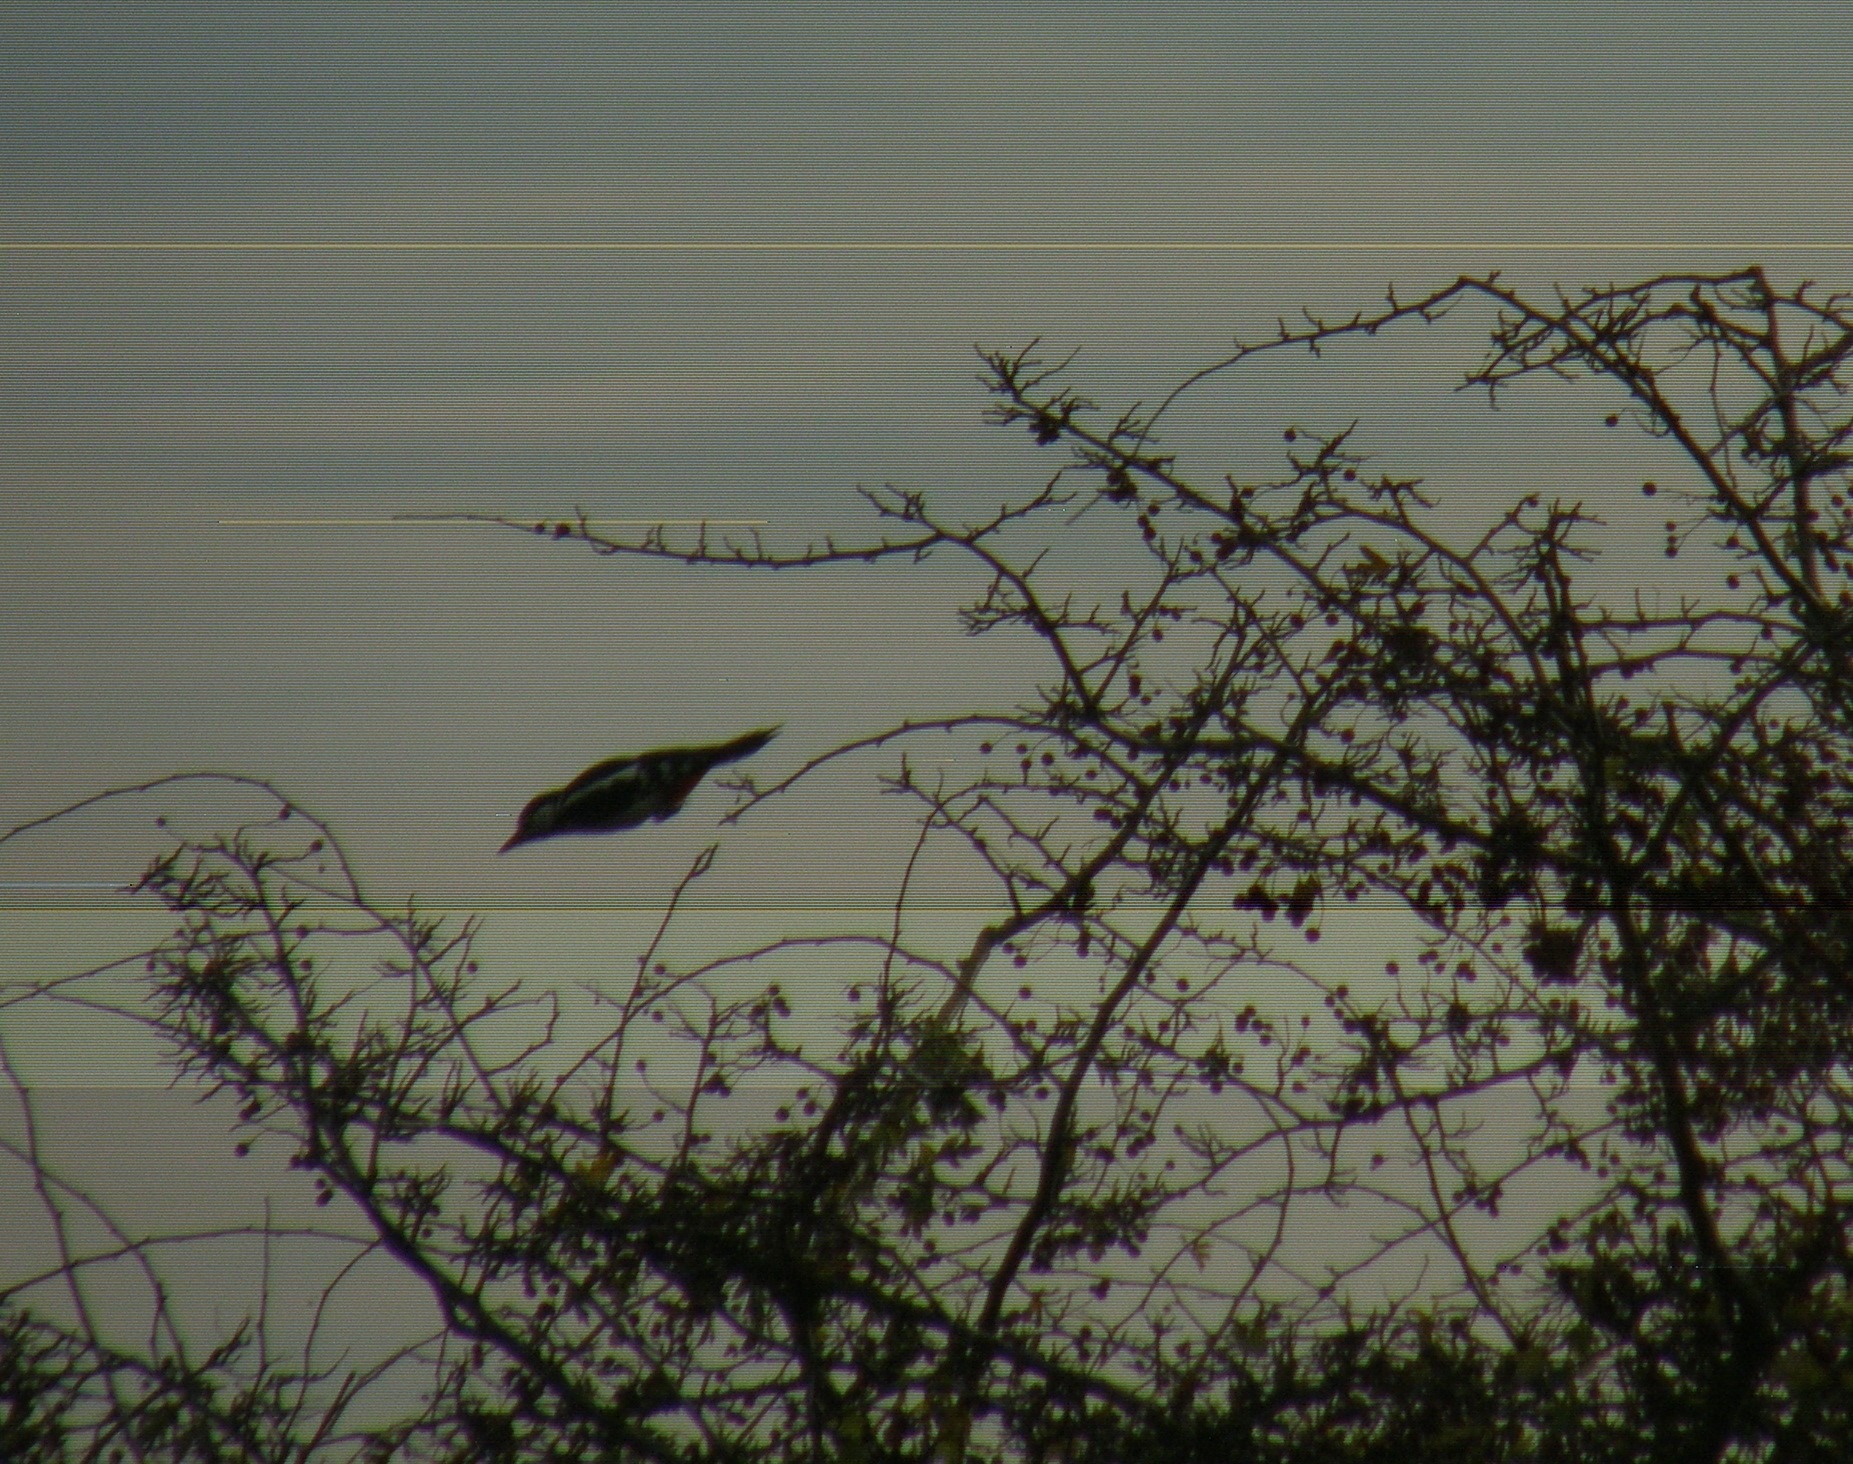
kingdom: Animalia
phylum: Chordata
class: Aves
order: Piciformes
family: Picidae
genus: Dendrocopos
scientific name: Dendrocopos major
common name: Stor flagspætte
